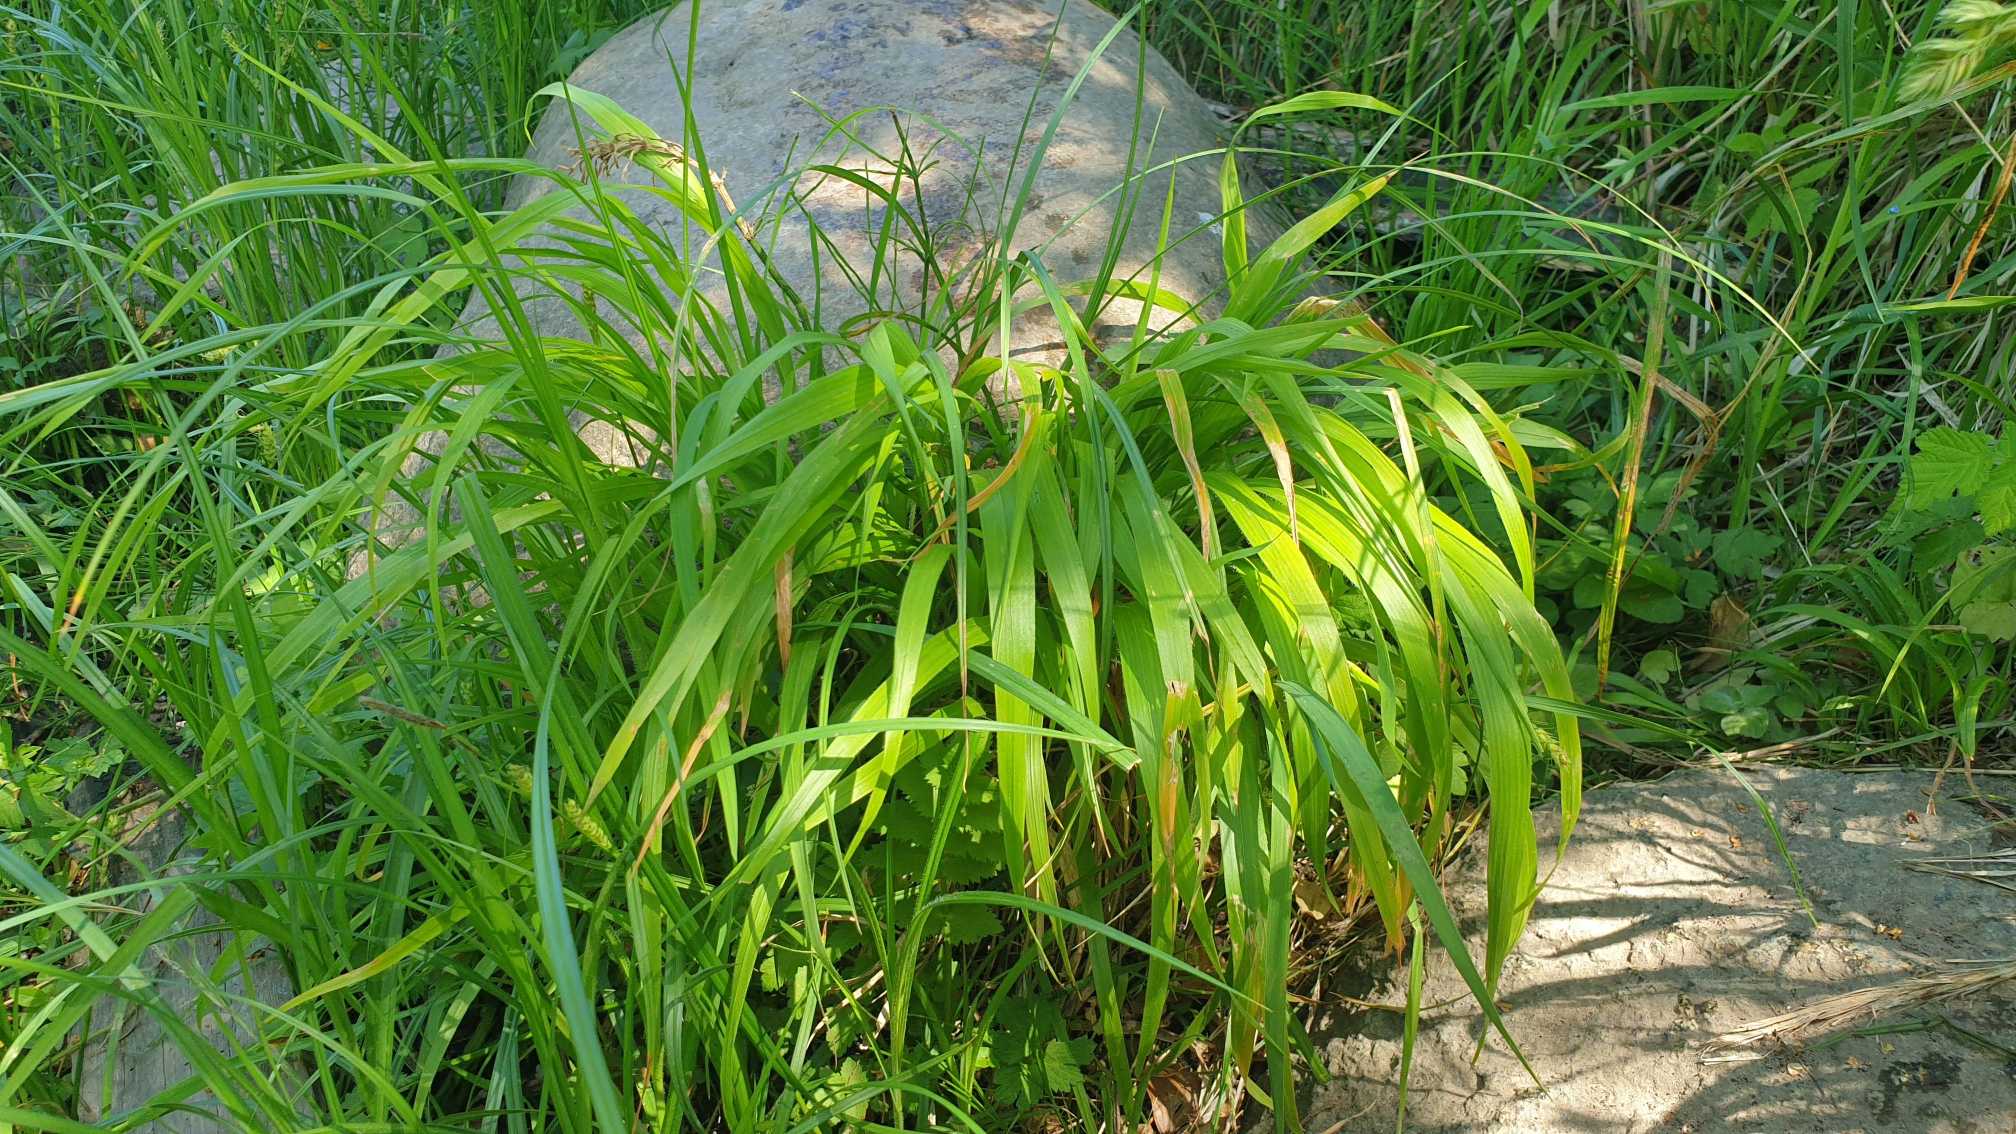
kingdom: Plantae
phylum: Tracheophyta
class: Liliopsida
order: Poales
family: Poaceae
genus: Brachypodium
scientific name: Brachypodium sylvaticum
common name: Skov-stilkaks
